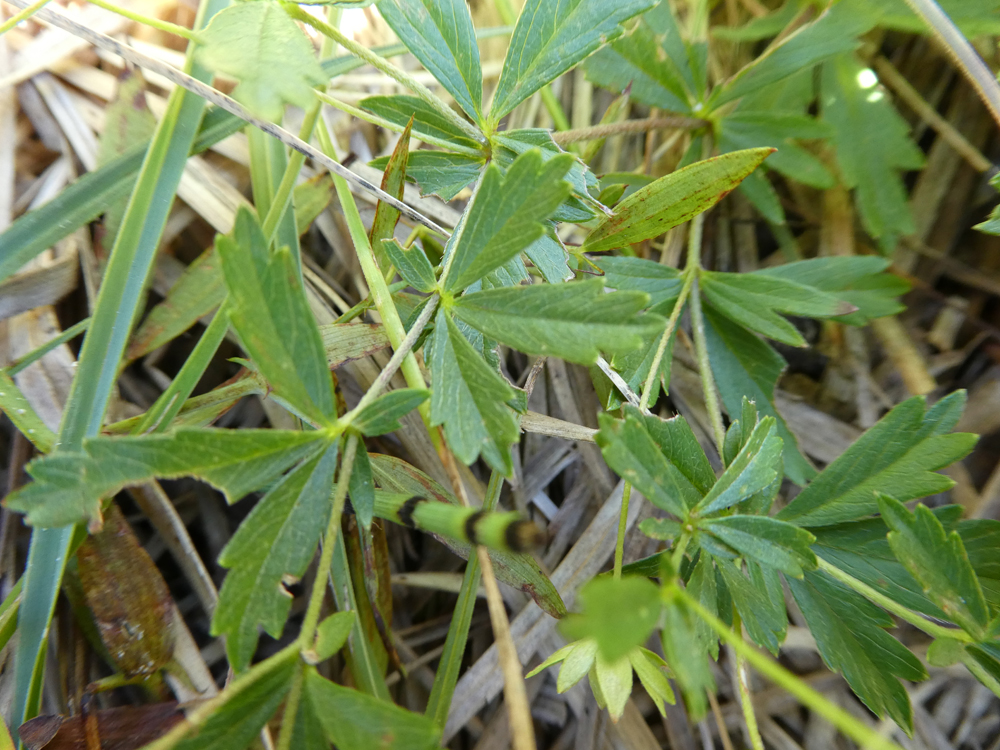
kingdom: Plantae
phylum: Tracheophyta
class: Magnoliopsida
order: Rosales
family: Rosaceae
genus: Potentilla
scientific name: Potentilla erecta
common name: Tormentil
